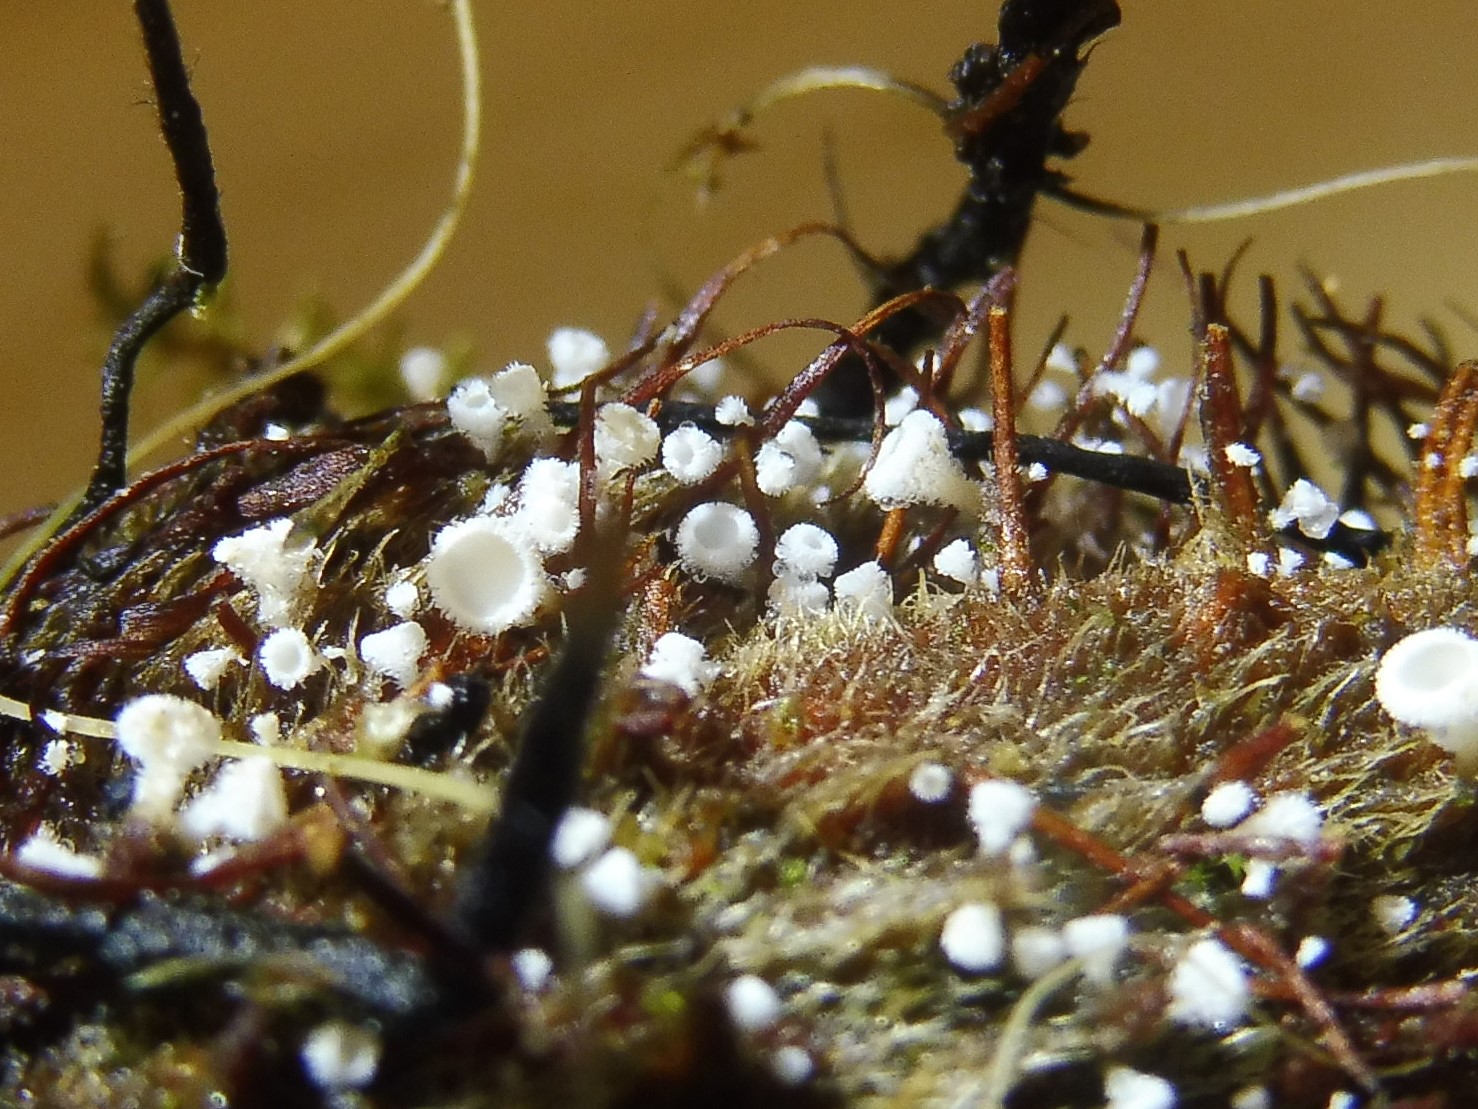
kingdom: Fungi
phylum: Ascomycota
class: Leotiomycetes
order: Helotiales
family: Lachnaceae
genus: Lachnum
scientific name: Lachnum virgineum
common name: jomfru-frynseskive
